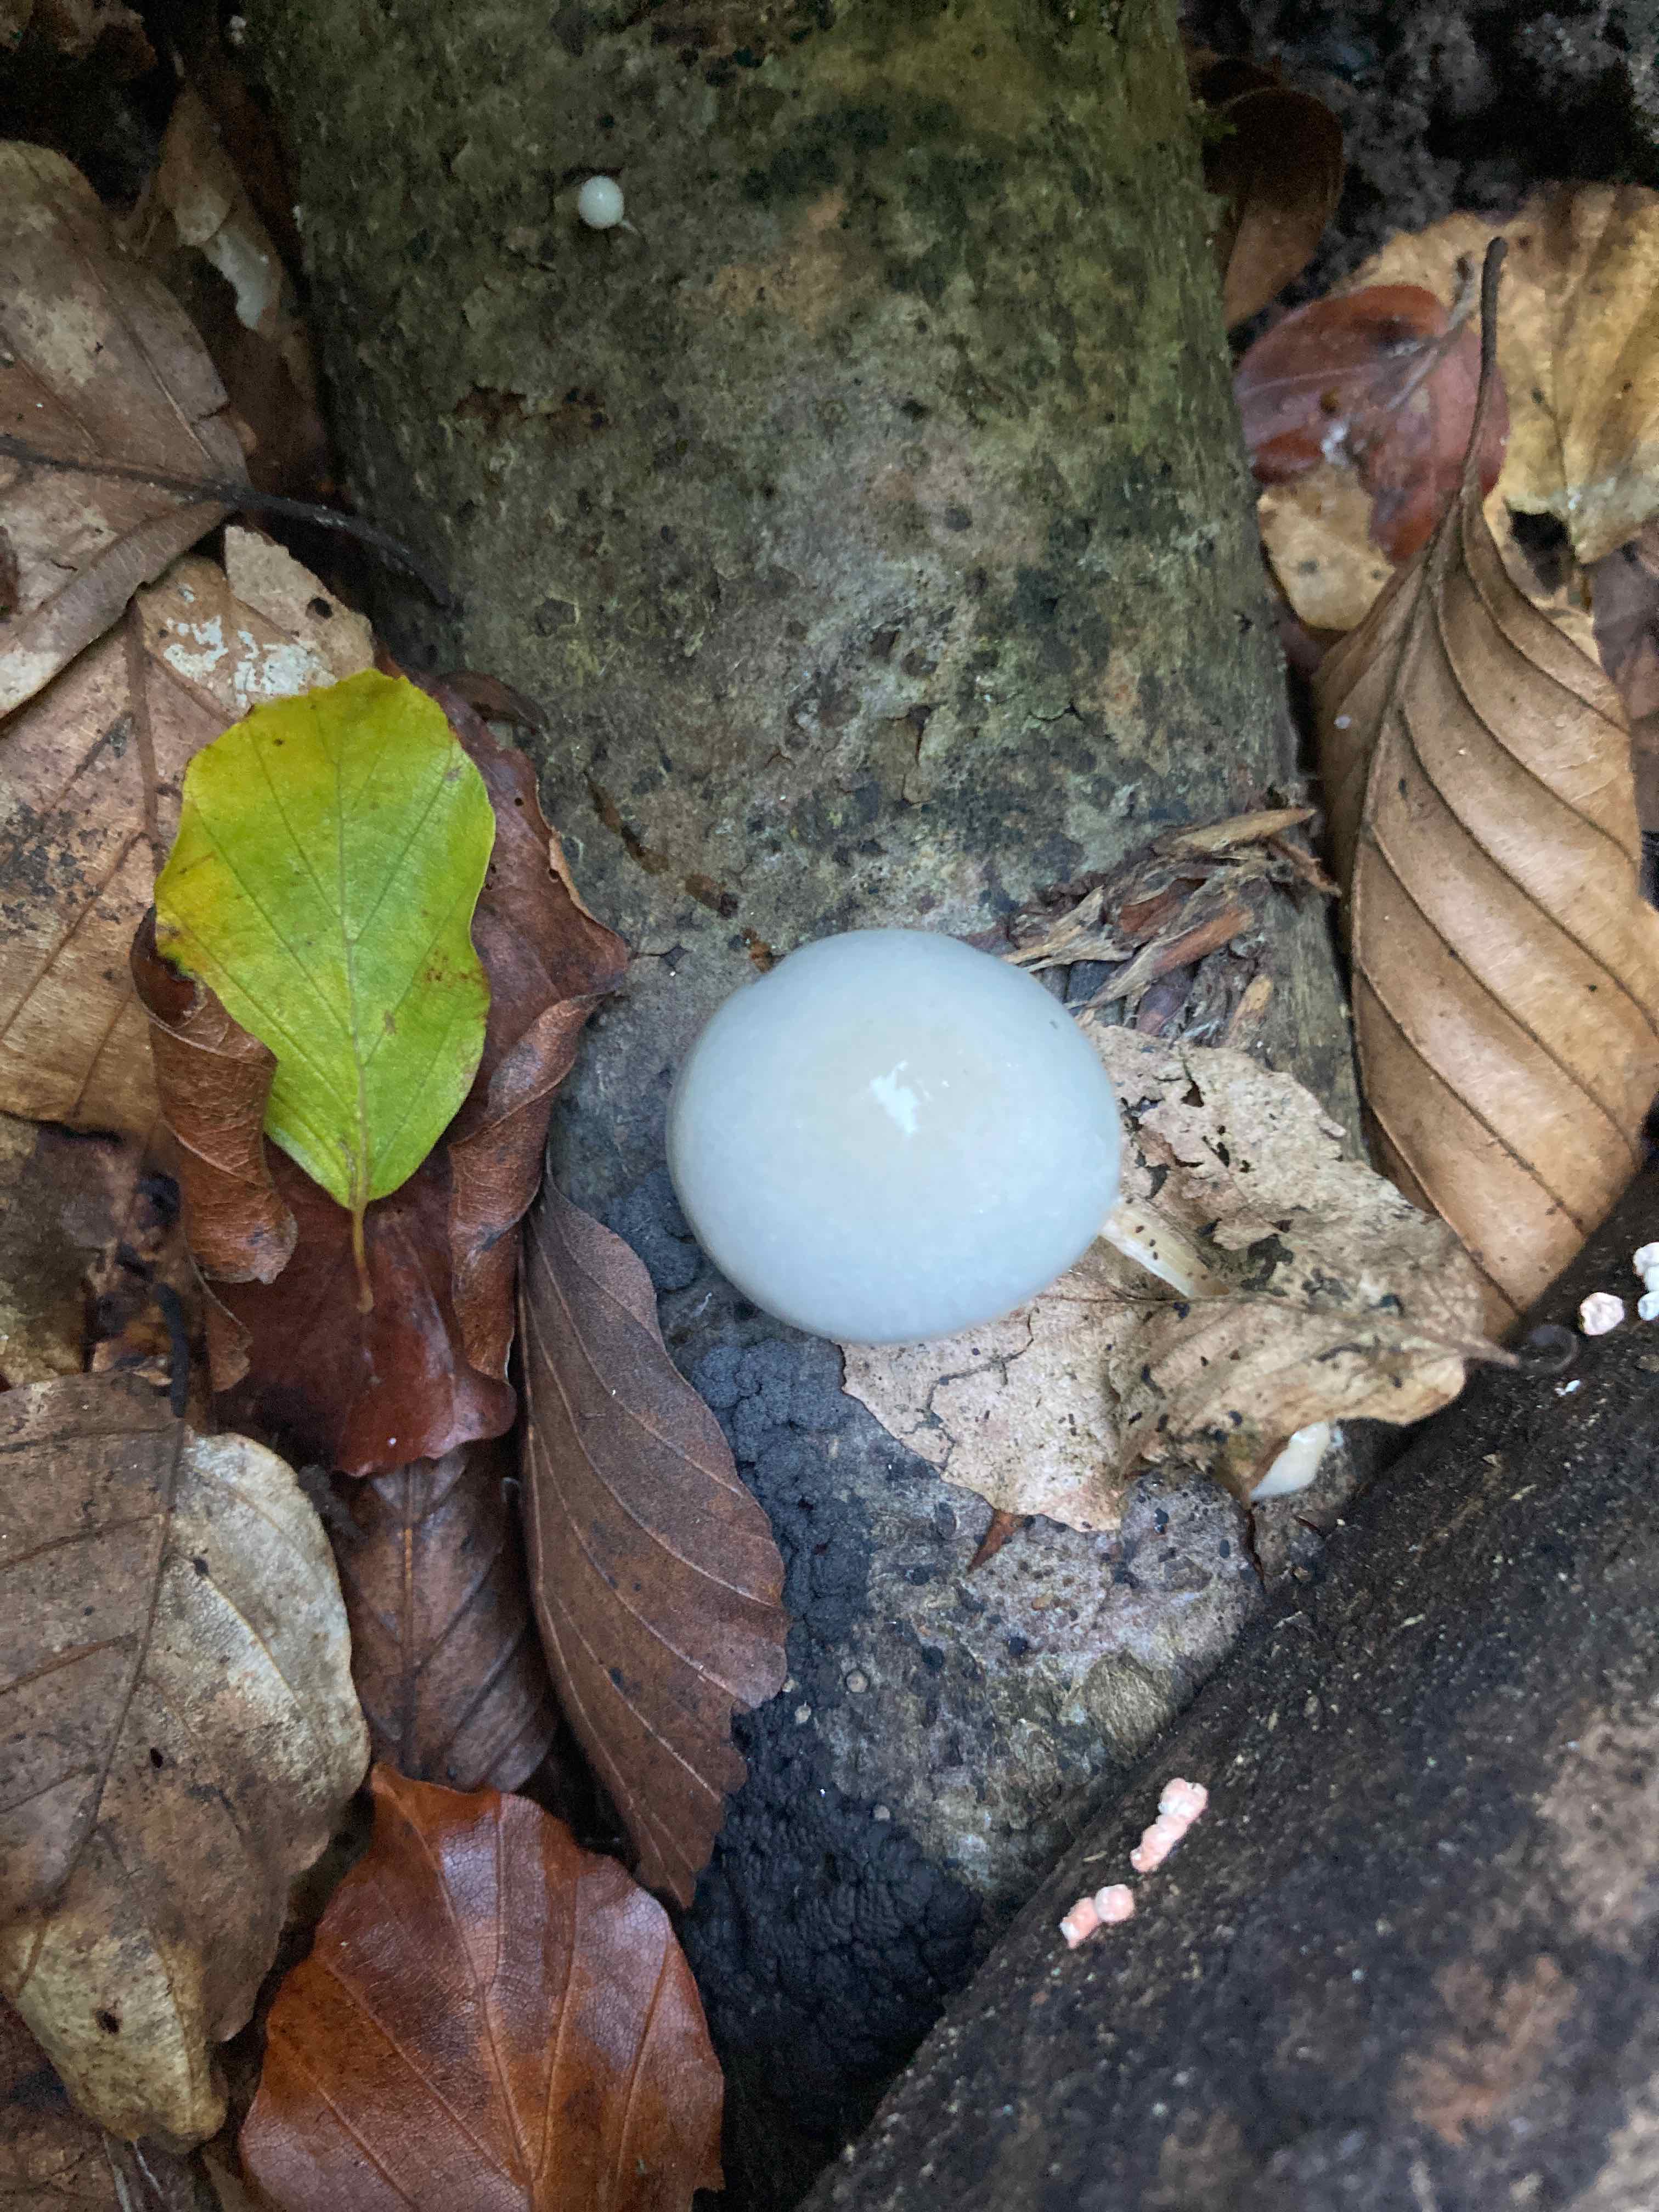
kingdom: Fungi
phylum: Basidiomycota
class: Agaricomycetes
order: Agaricales
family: Physalacriaceae
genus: Mucidula
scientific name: Mucidula mucida
